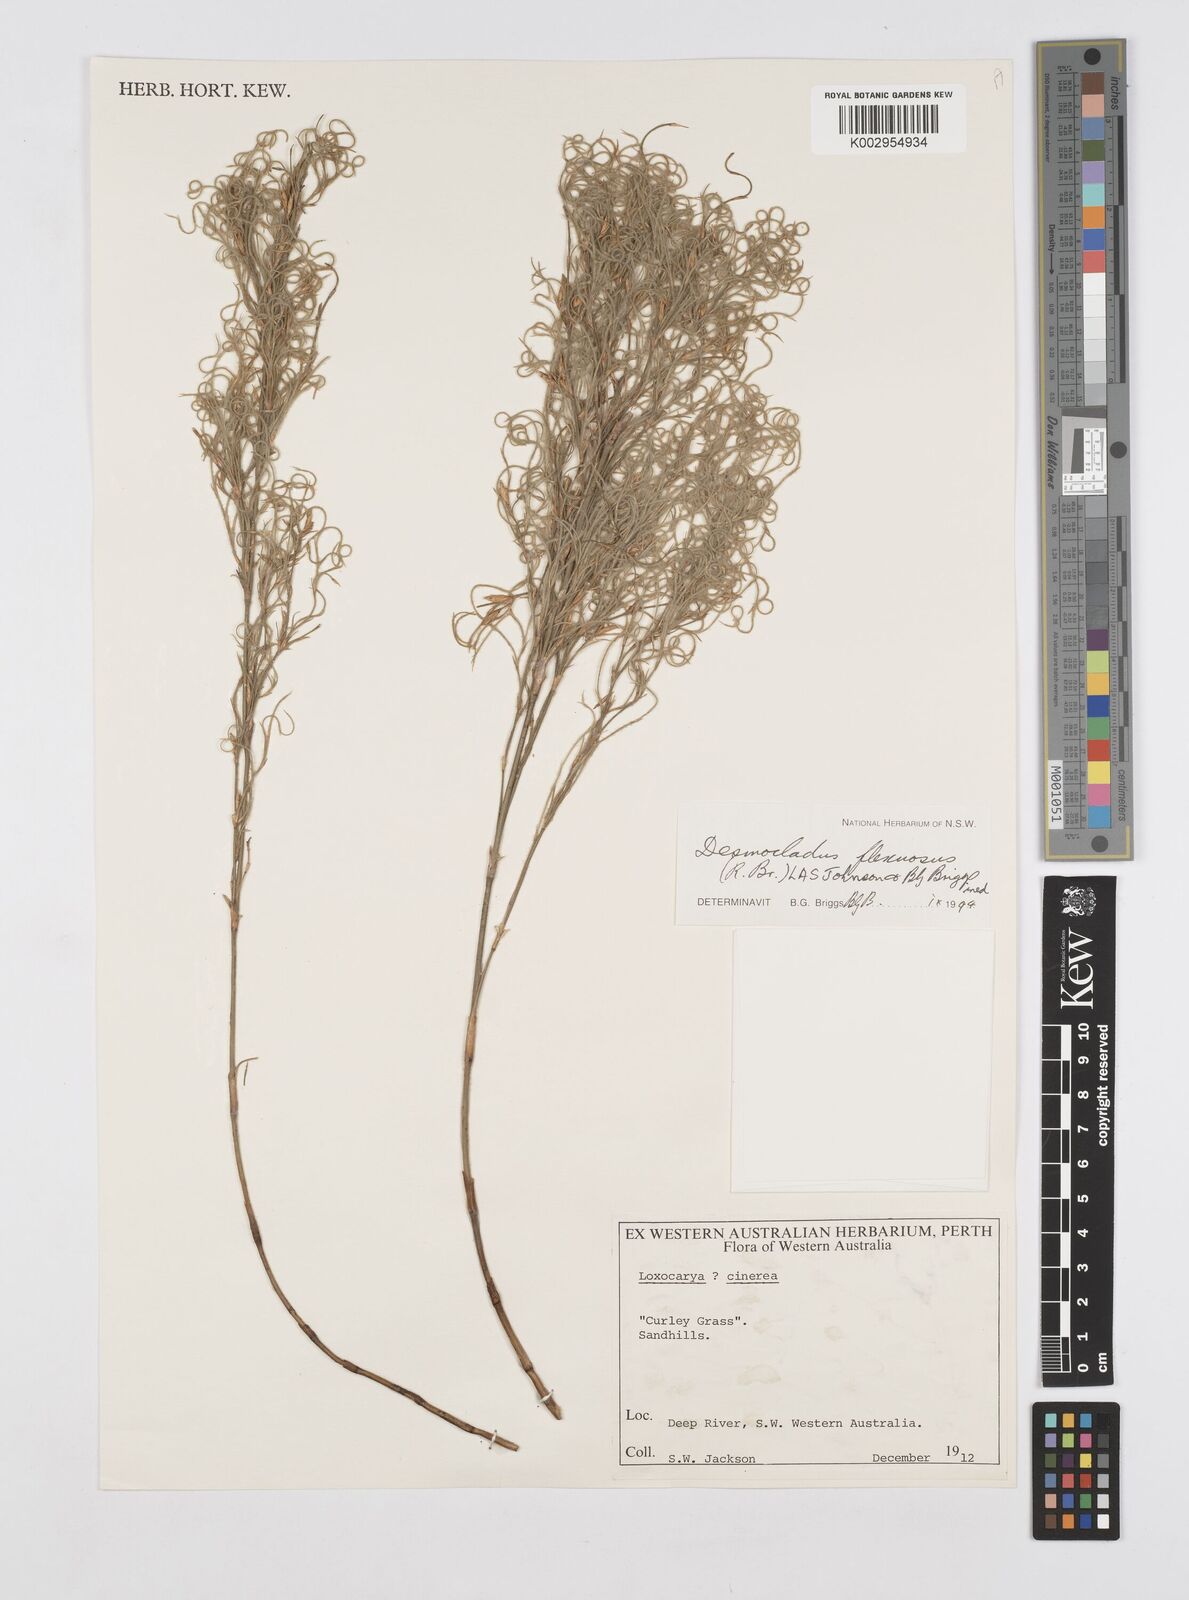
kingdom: Plantae
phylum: Tracheophyta
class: Liliopsida
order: Poales
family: Restionaceae
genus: Desmocladus
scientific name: Desmocladus flexuosus
